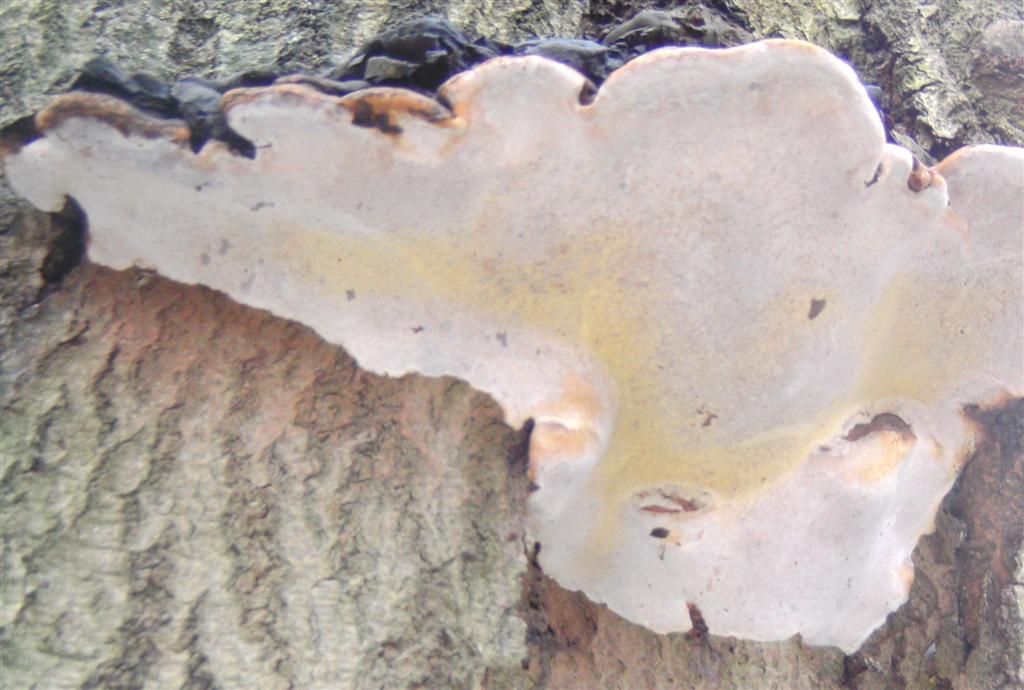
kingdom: Fungi
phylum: Basidiomycota
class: Agaricomycetes
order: Polyporales
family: Polyporaceae
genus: Ganoderma
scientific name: Ganoderma adspersum
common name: grov lakporesvamp
